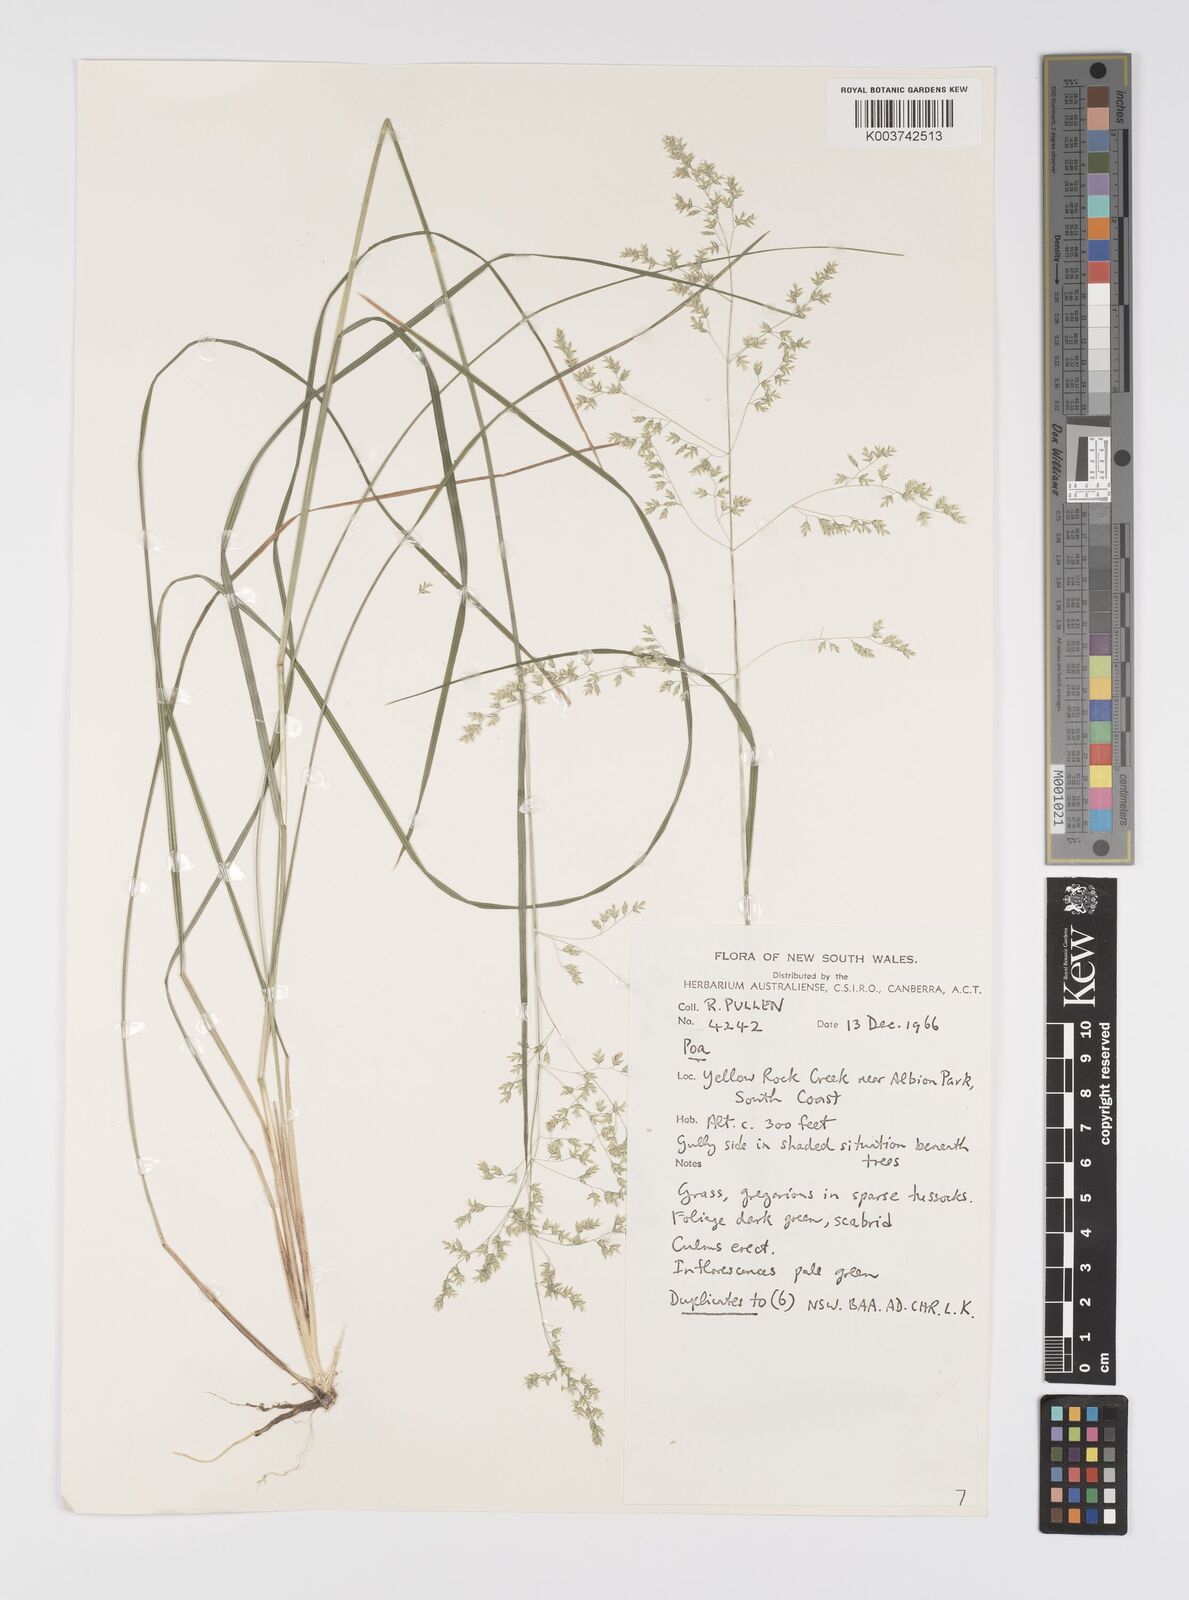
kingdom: Plantae
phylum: Tracheophyta
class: Liliopsida
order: Poales
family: Poaceae
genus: Poa
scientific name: Poa
